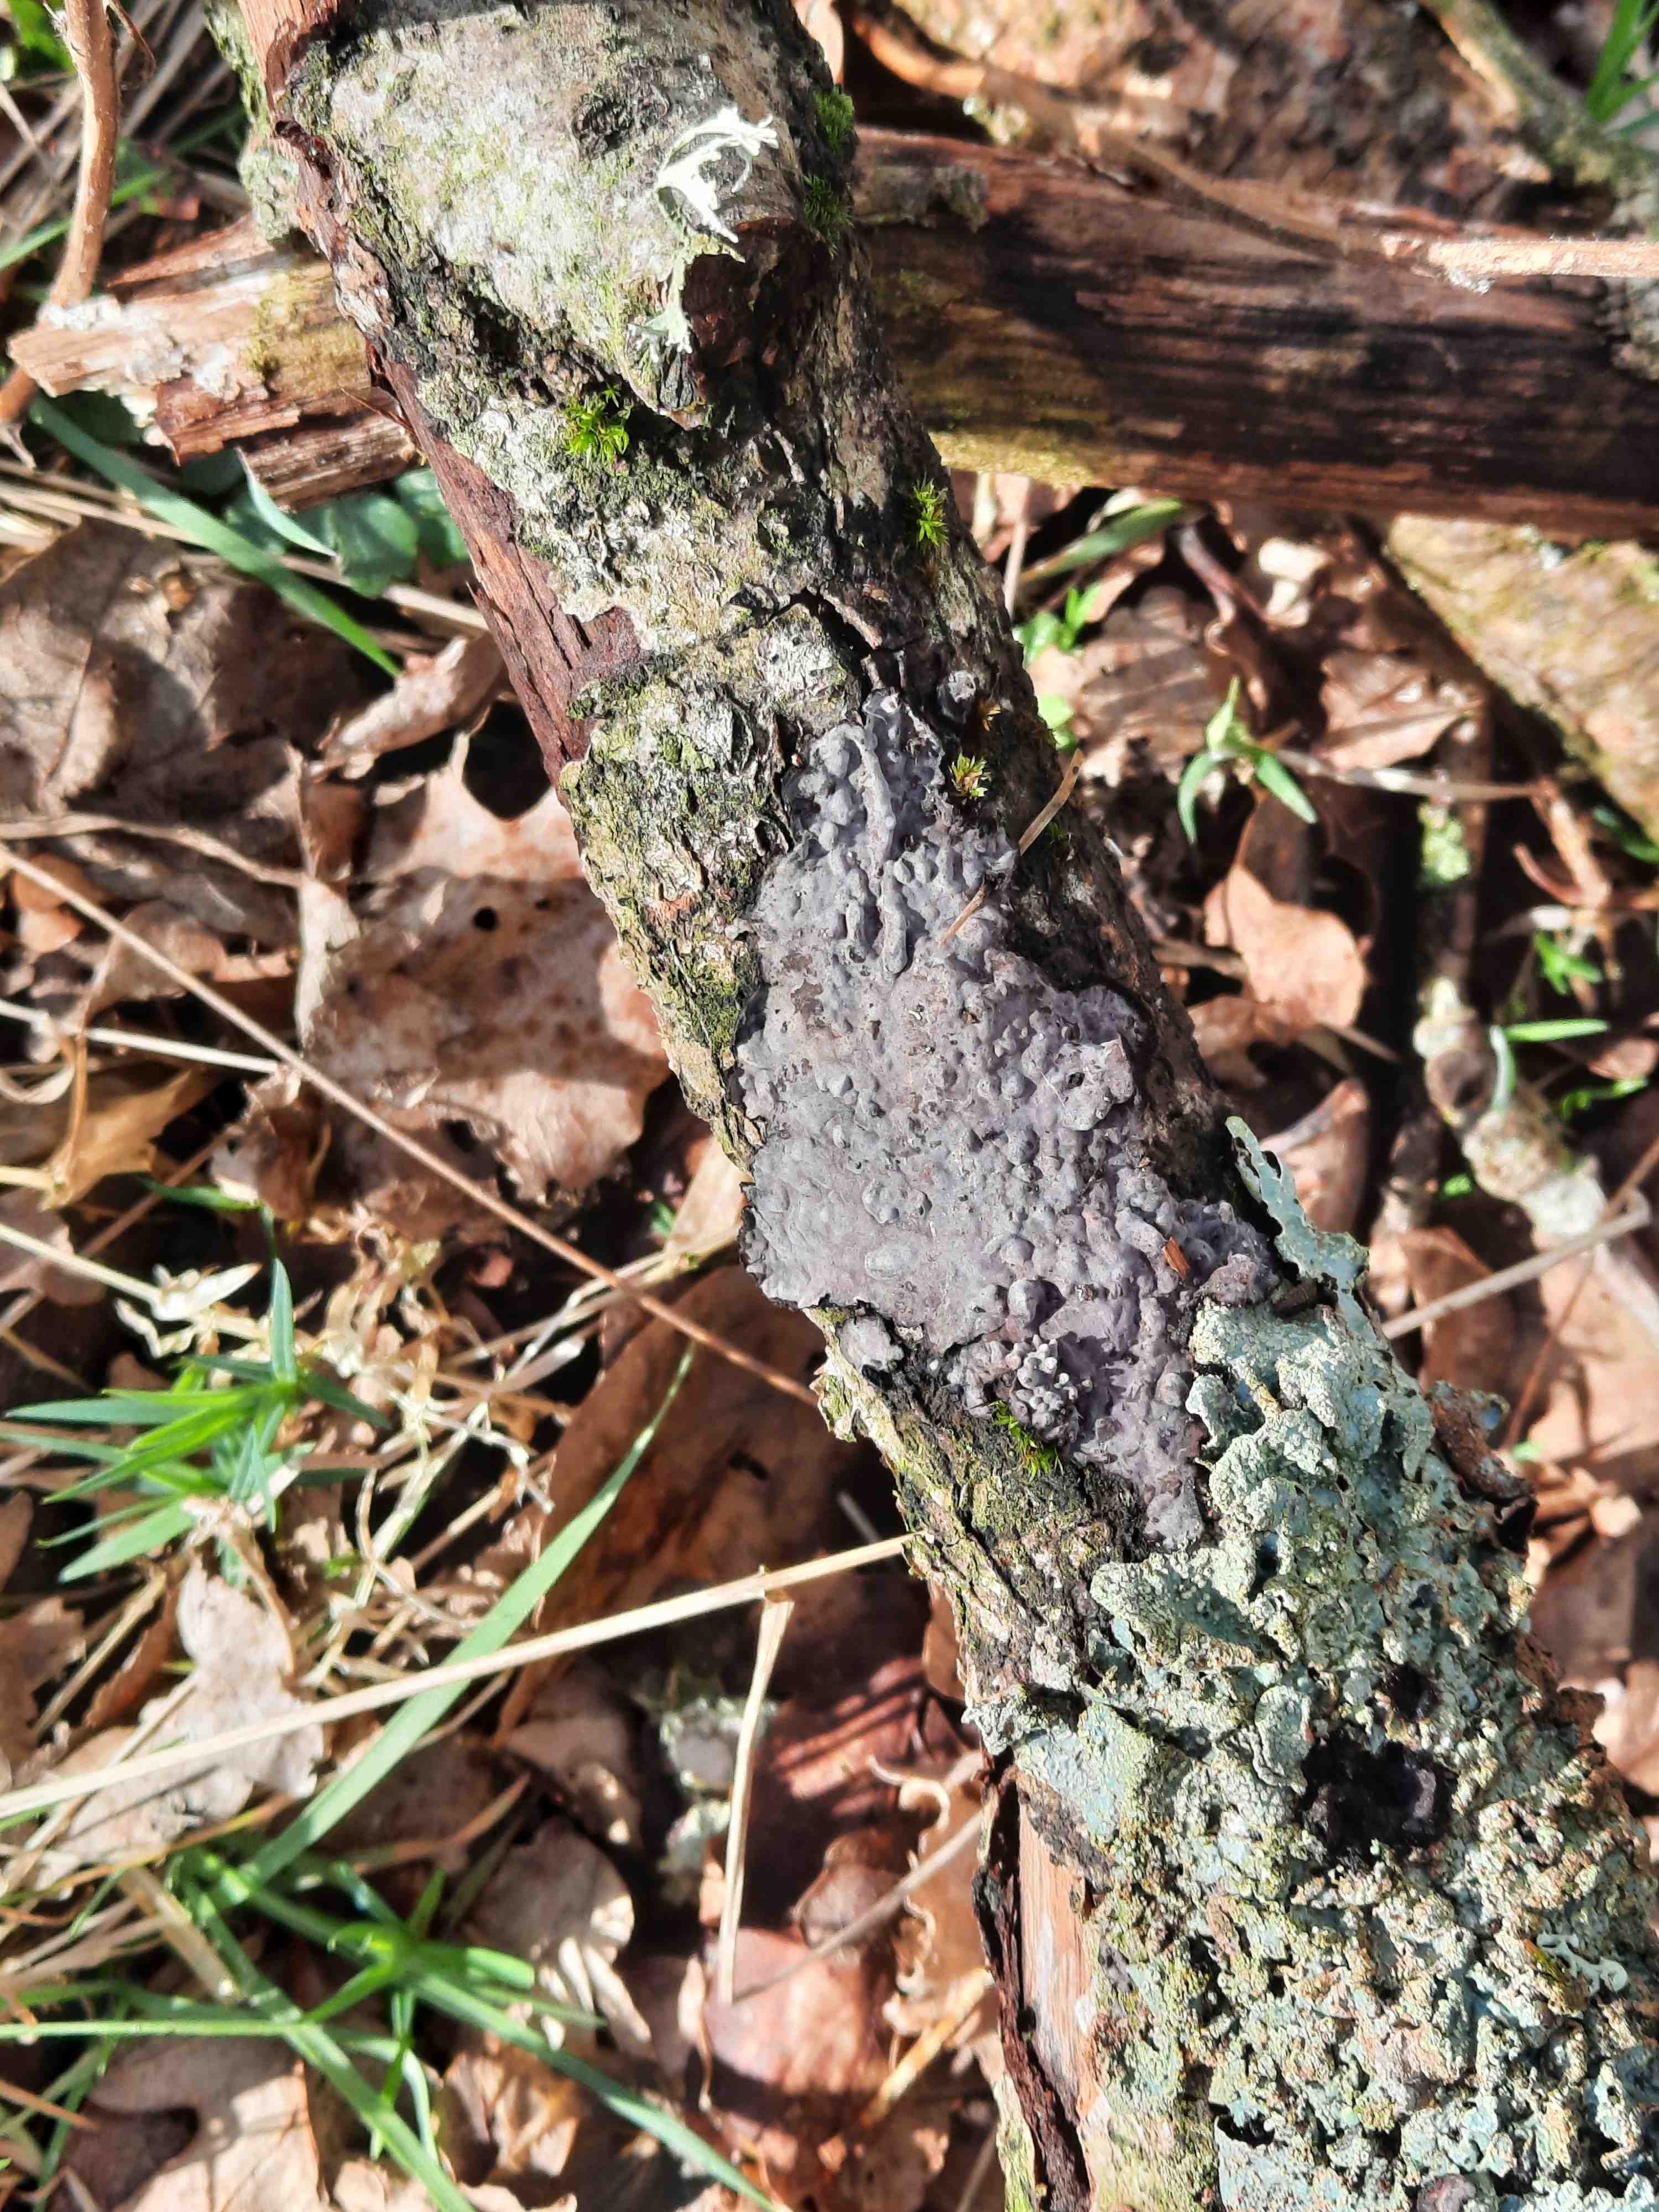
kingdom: Fungi
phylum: Basidiomycota
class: Agaricomycetes
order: Russulales
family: Peniophoraceae
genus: Peniophora
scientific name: Peniophora quercina
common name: ege-voksskind
